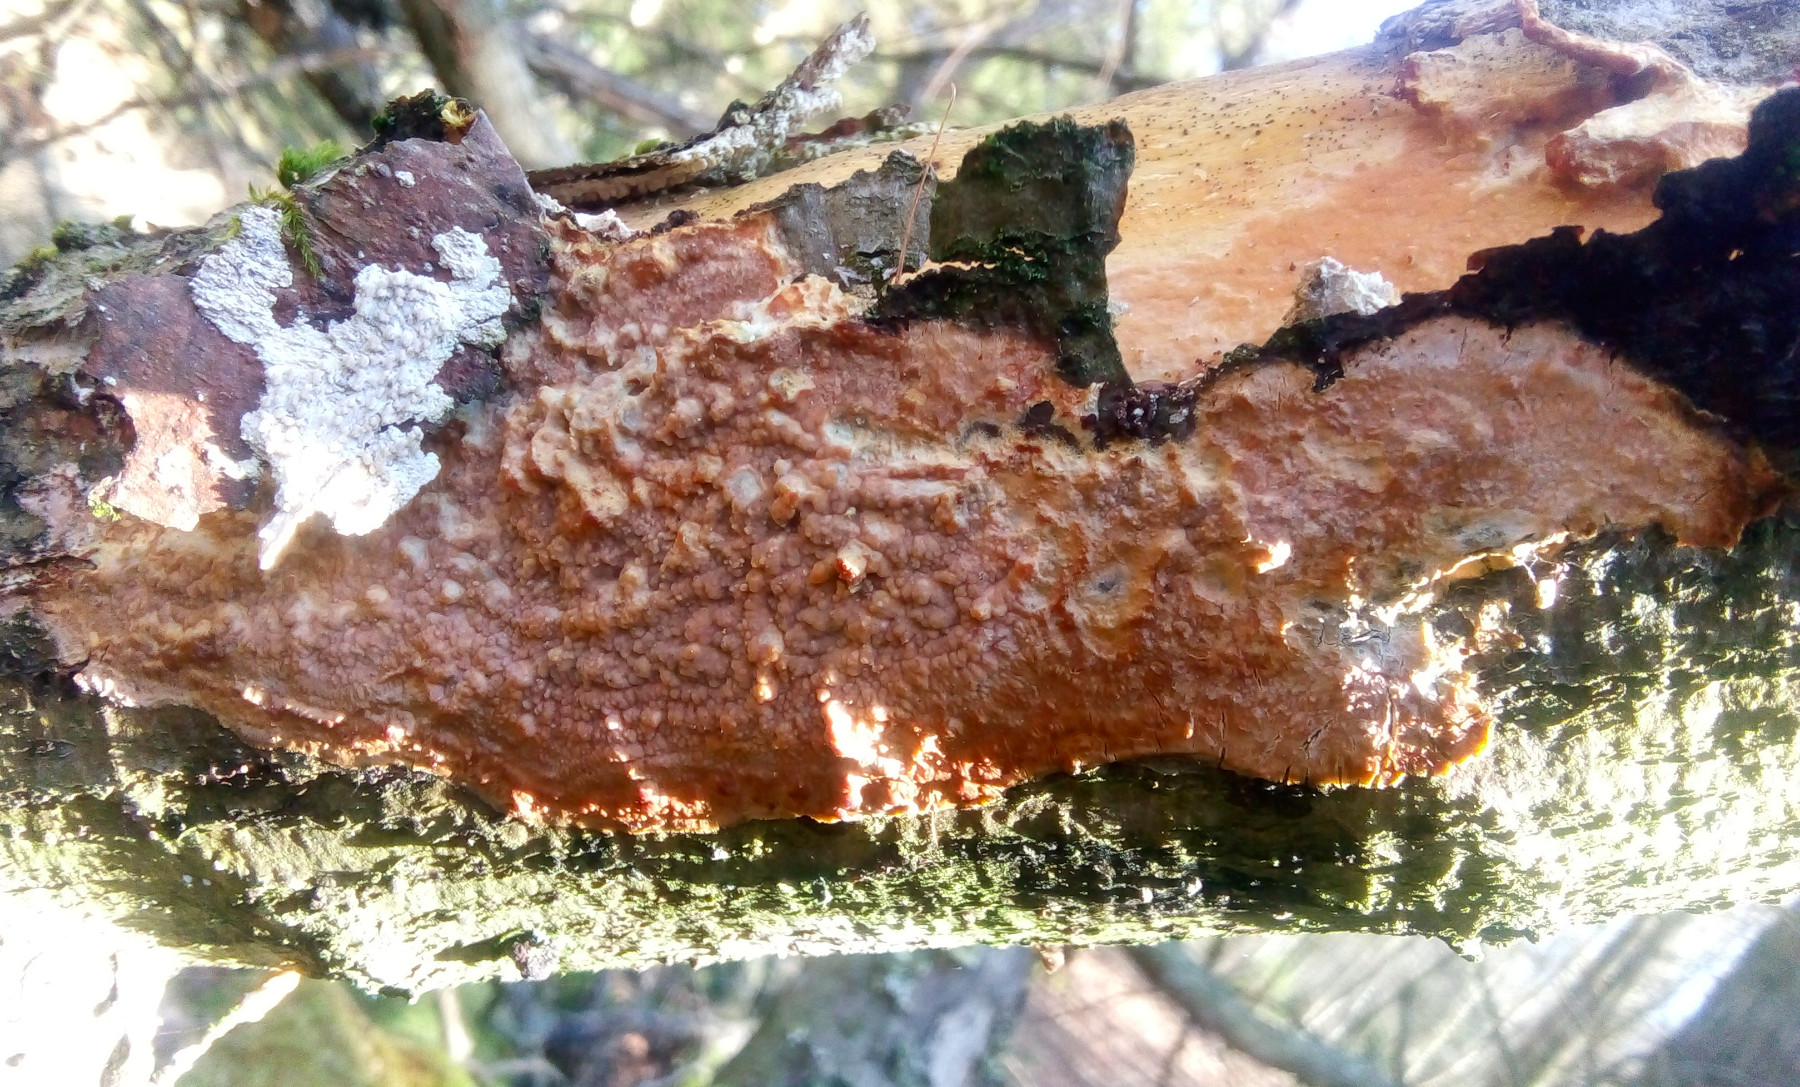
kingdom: Fungi
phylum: Basidiomycota
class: Agaricomycetes
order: Corticiales
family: Corticiaceae
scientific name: Corticiaceae
